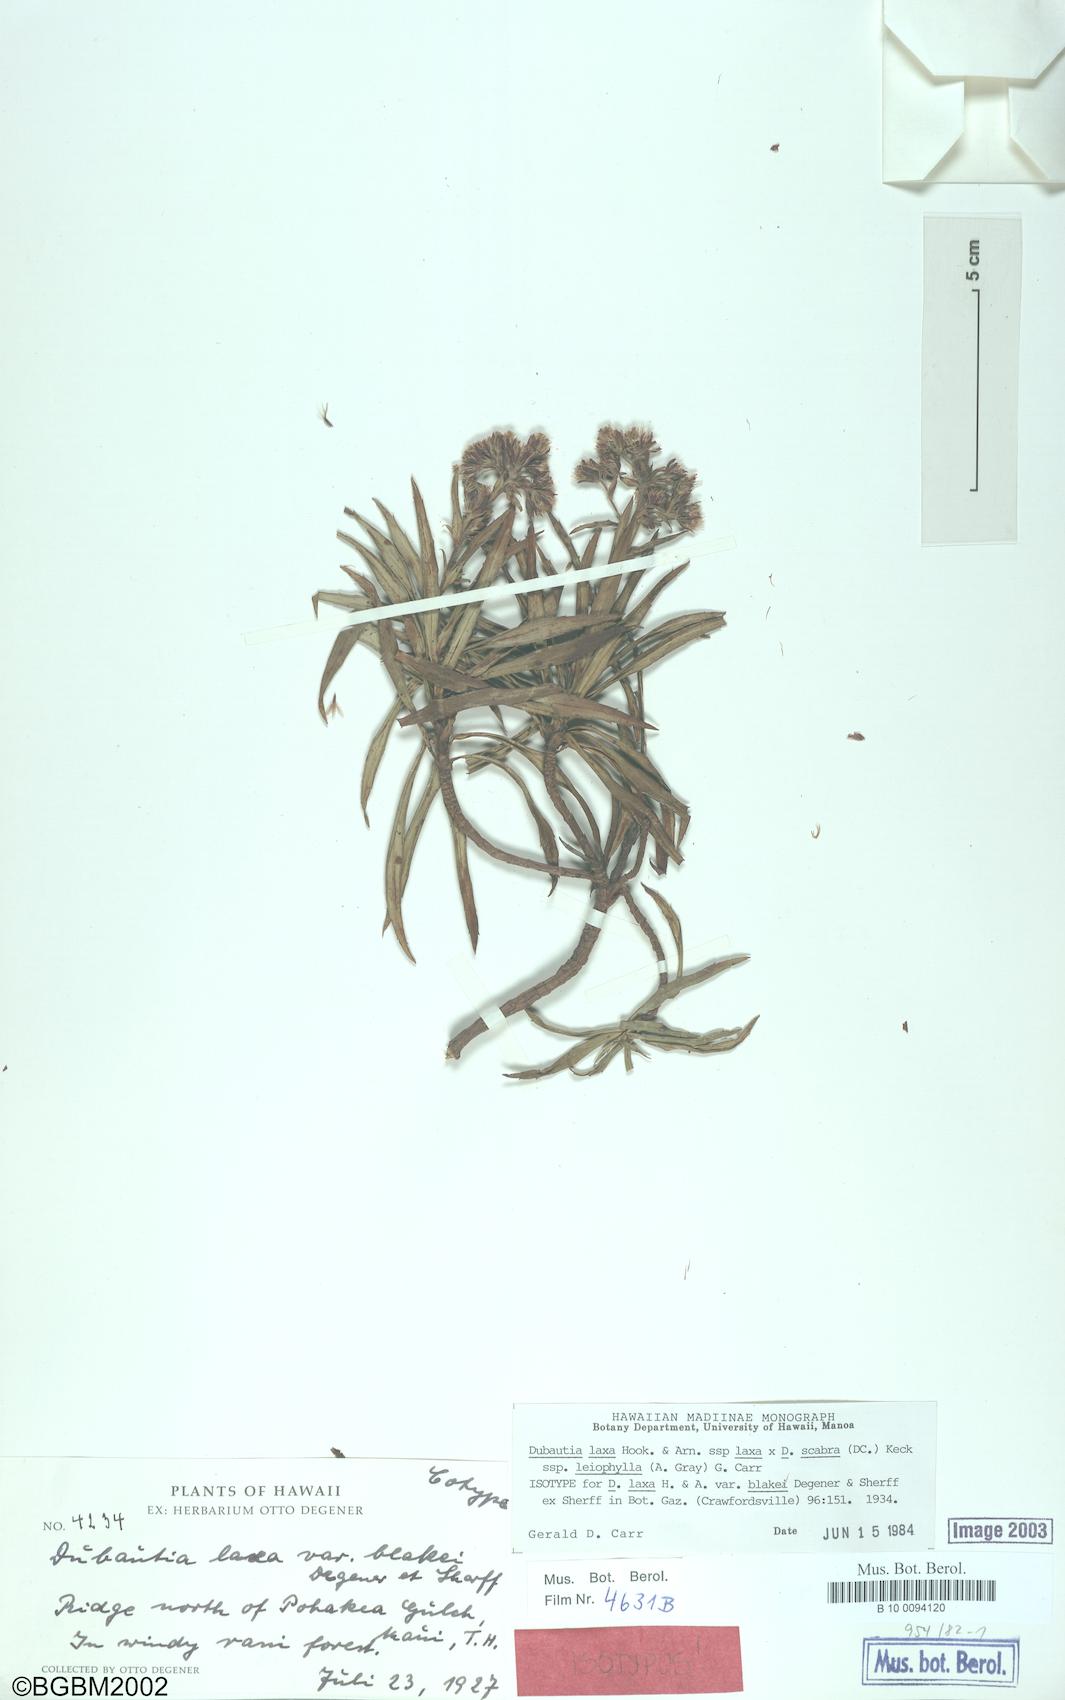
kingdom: Plantae
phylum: Tracheophyta
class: Magnoliopsida
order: Asterales
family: Asteraceae
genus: Dubautia
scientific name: Dubautia laxa
